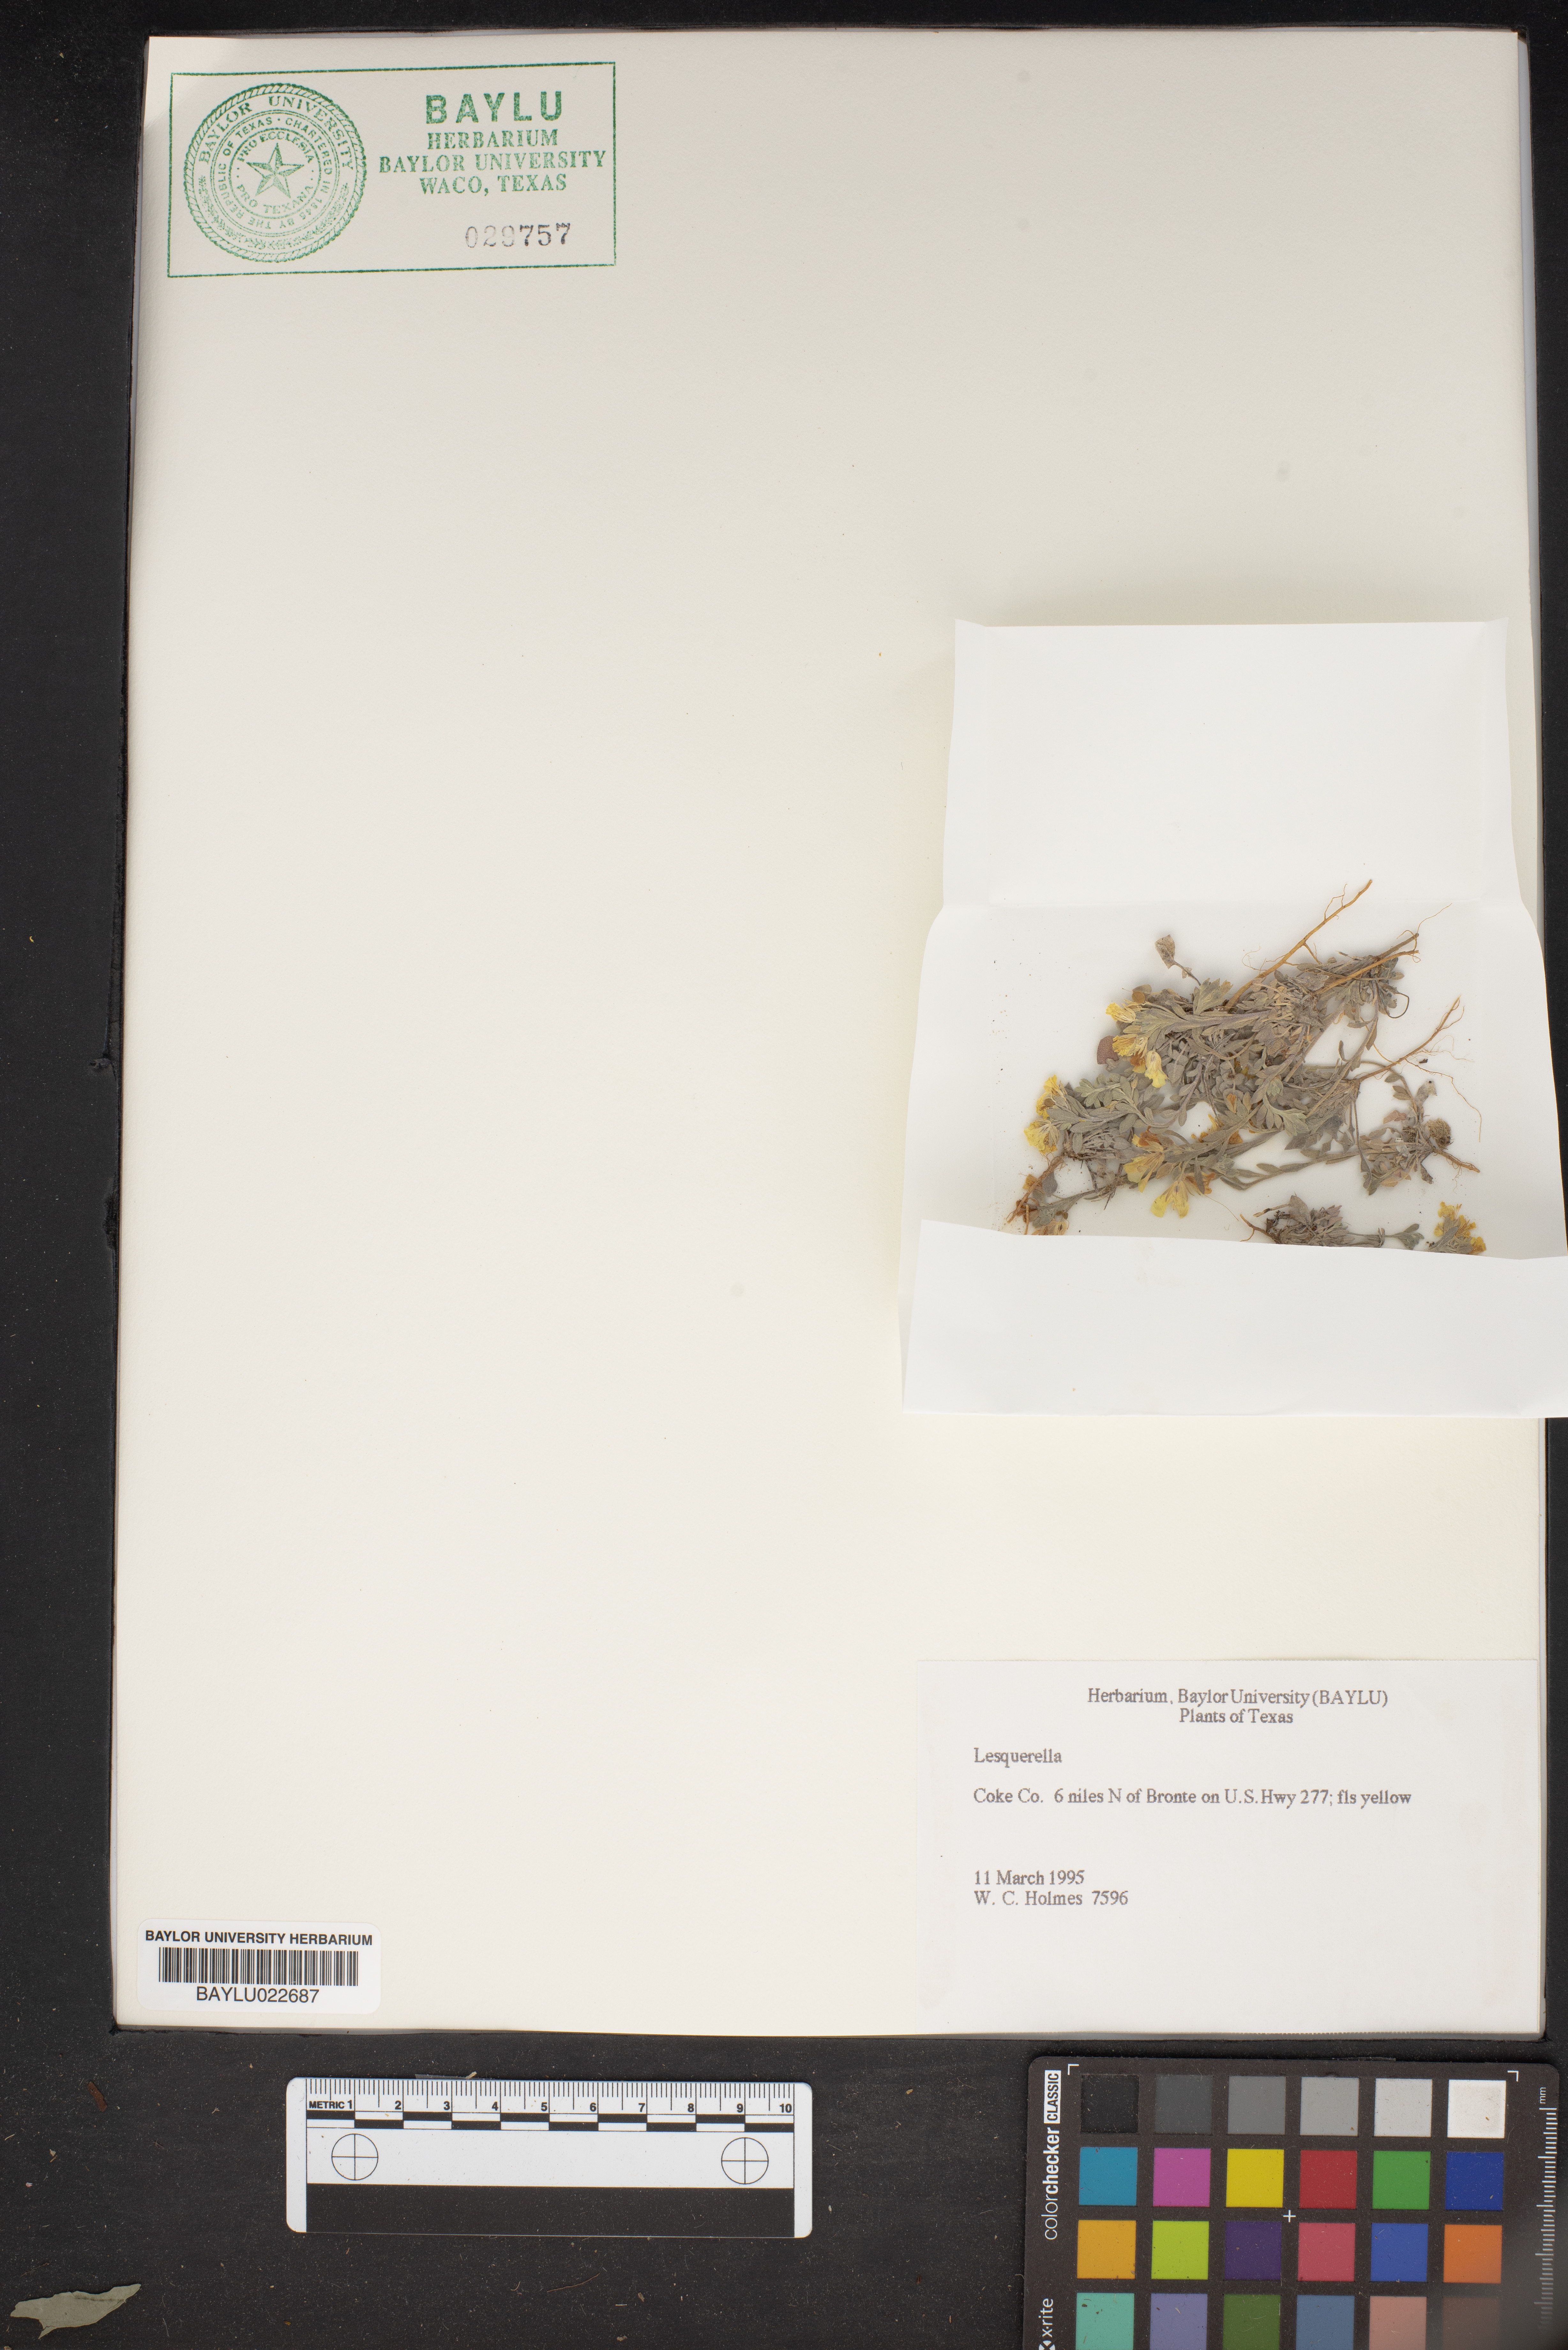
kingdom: Chromista
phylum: Cercozoa
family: Psammonobiotidae
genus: Lesquerella
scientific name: Lesquerella
